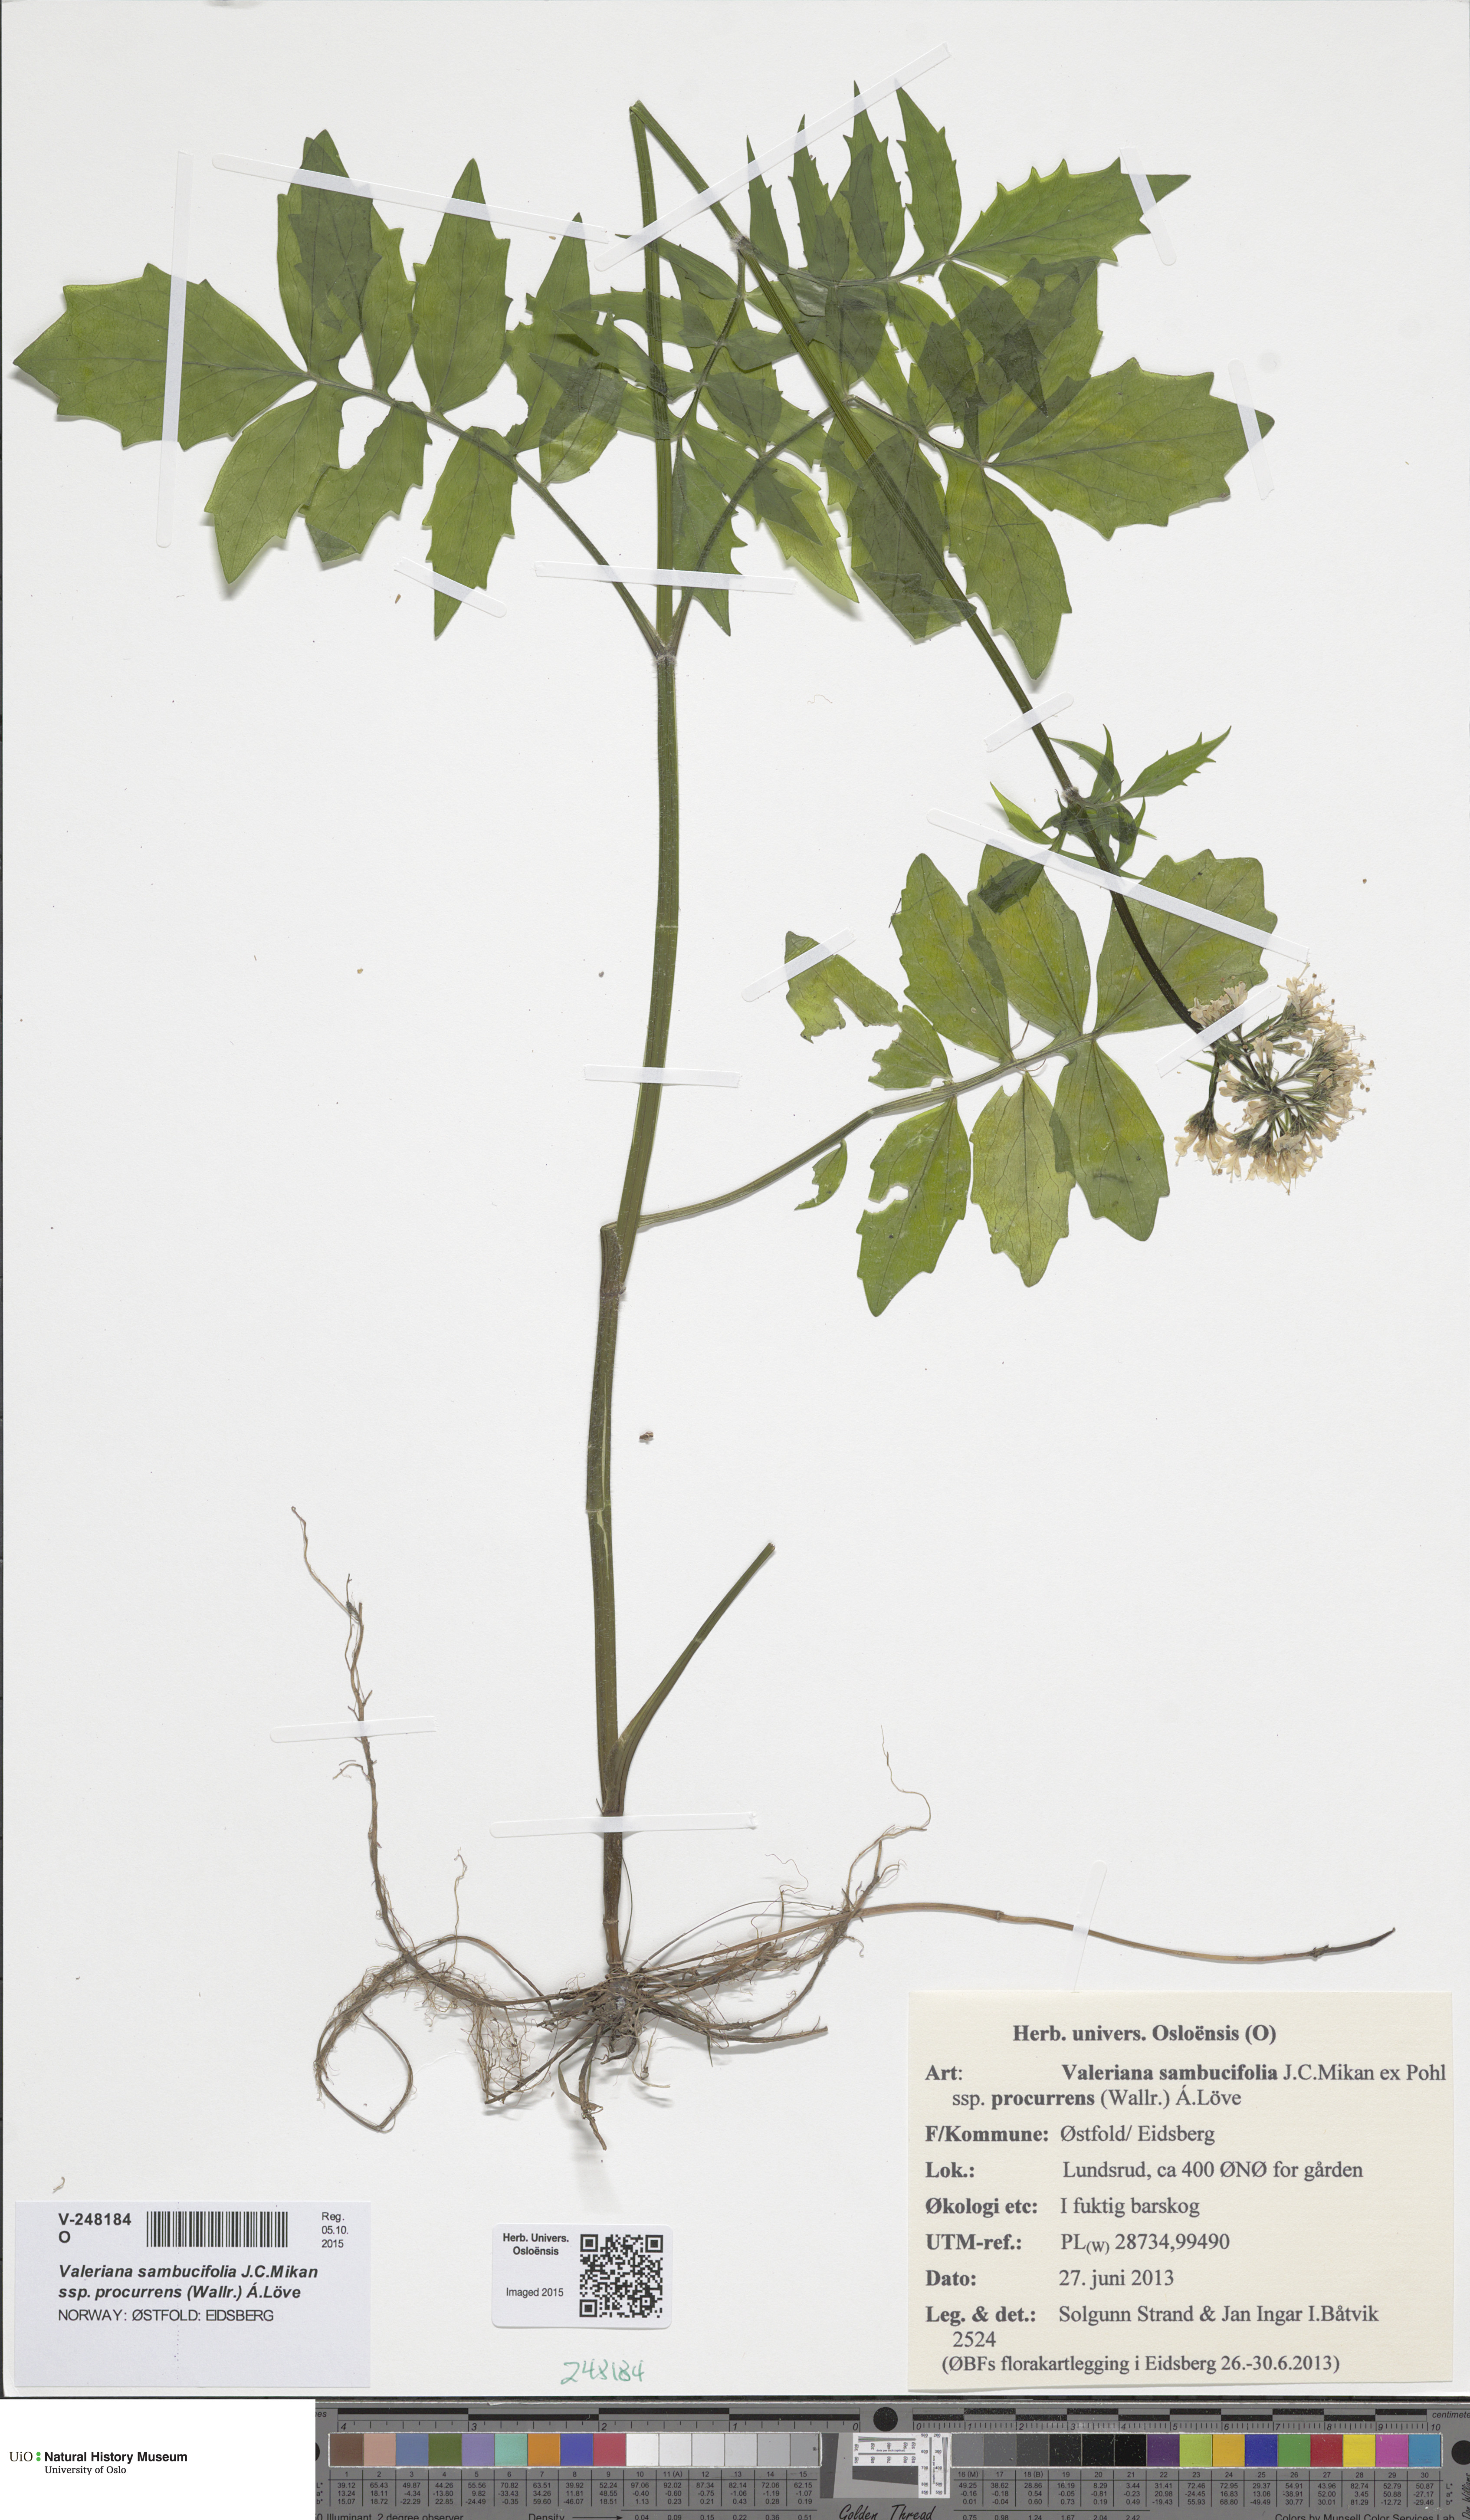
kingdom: Plantae
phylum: Tracheophyta
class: Magnoliopsida
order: Dipsacales
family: Caprifoliaceae
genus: Valeriana
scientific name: Valeriana excelsa
